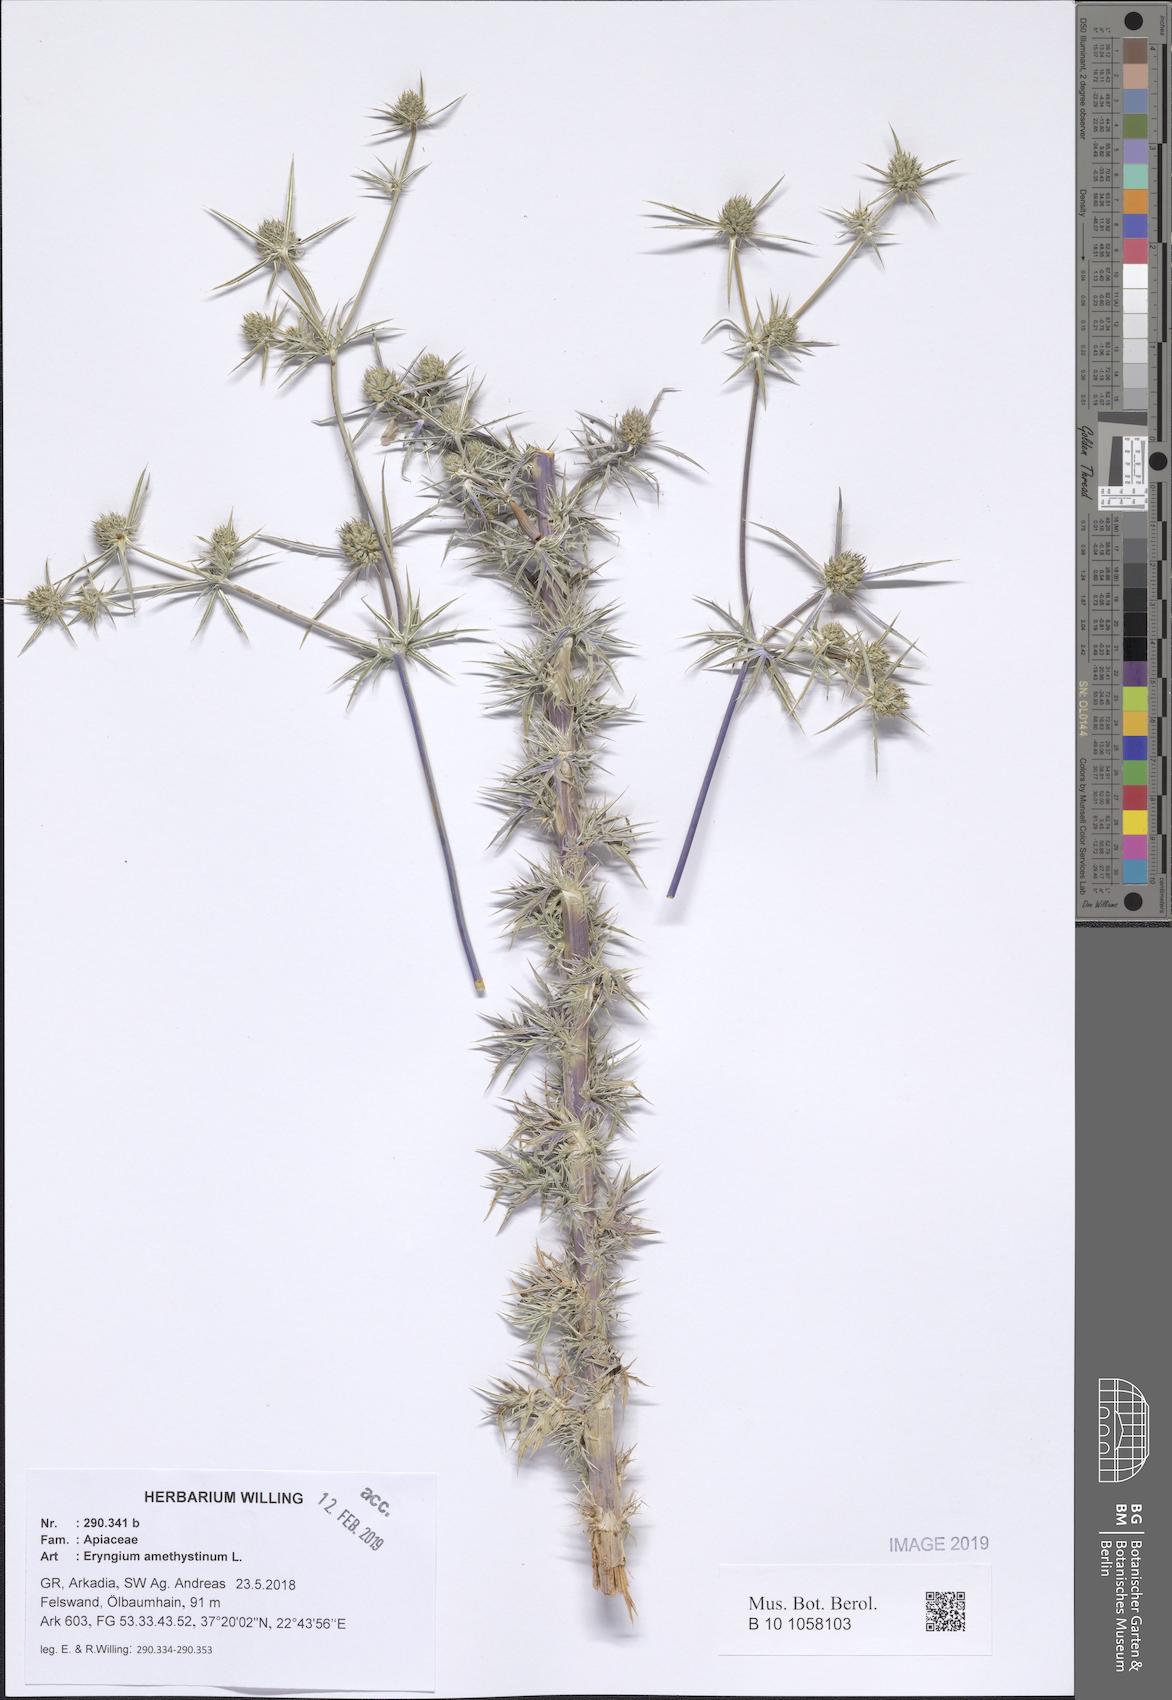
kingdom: Plantae
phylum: Tracheophyta
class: Magnoliopsida
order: Apiales
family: Apiaceae
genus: Eryngium
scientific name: Eryngium amethystinum
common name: Amethyst eryngo
